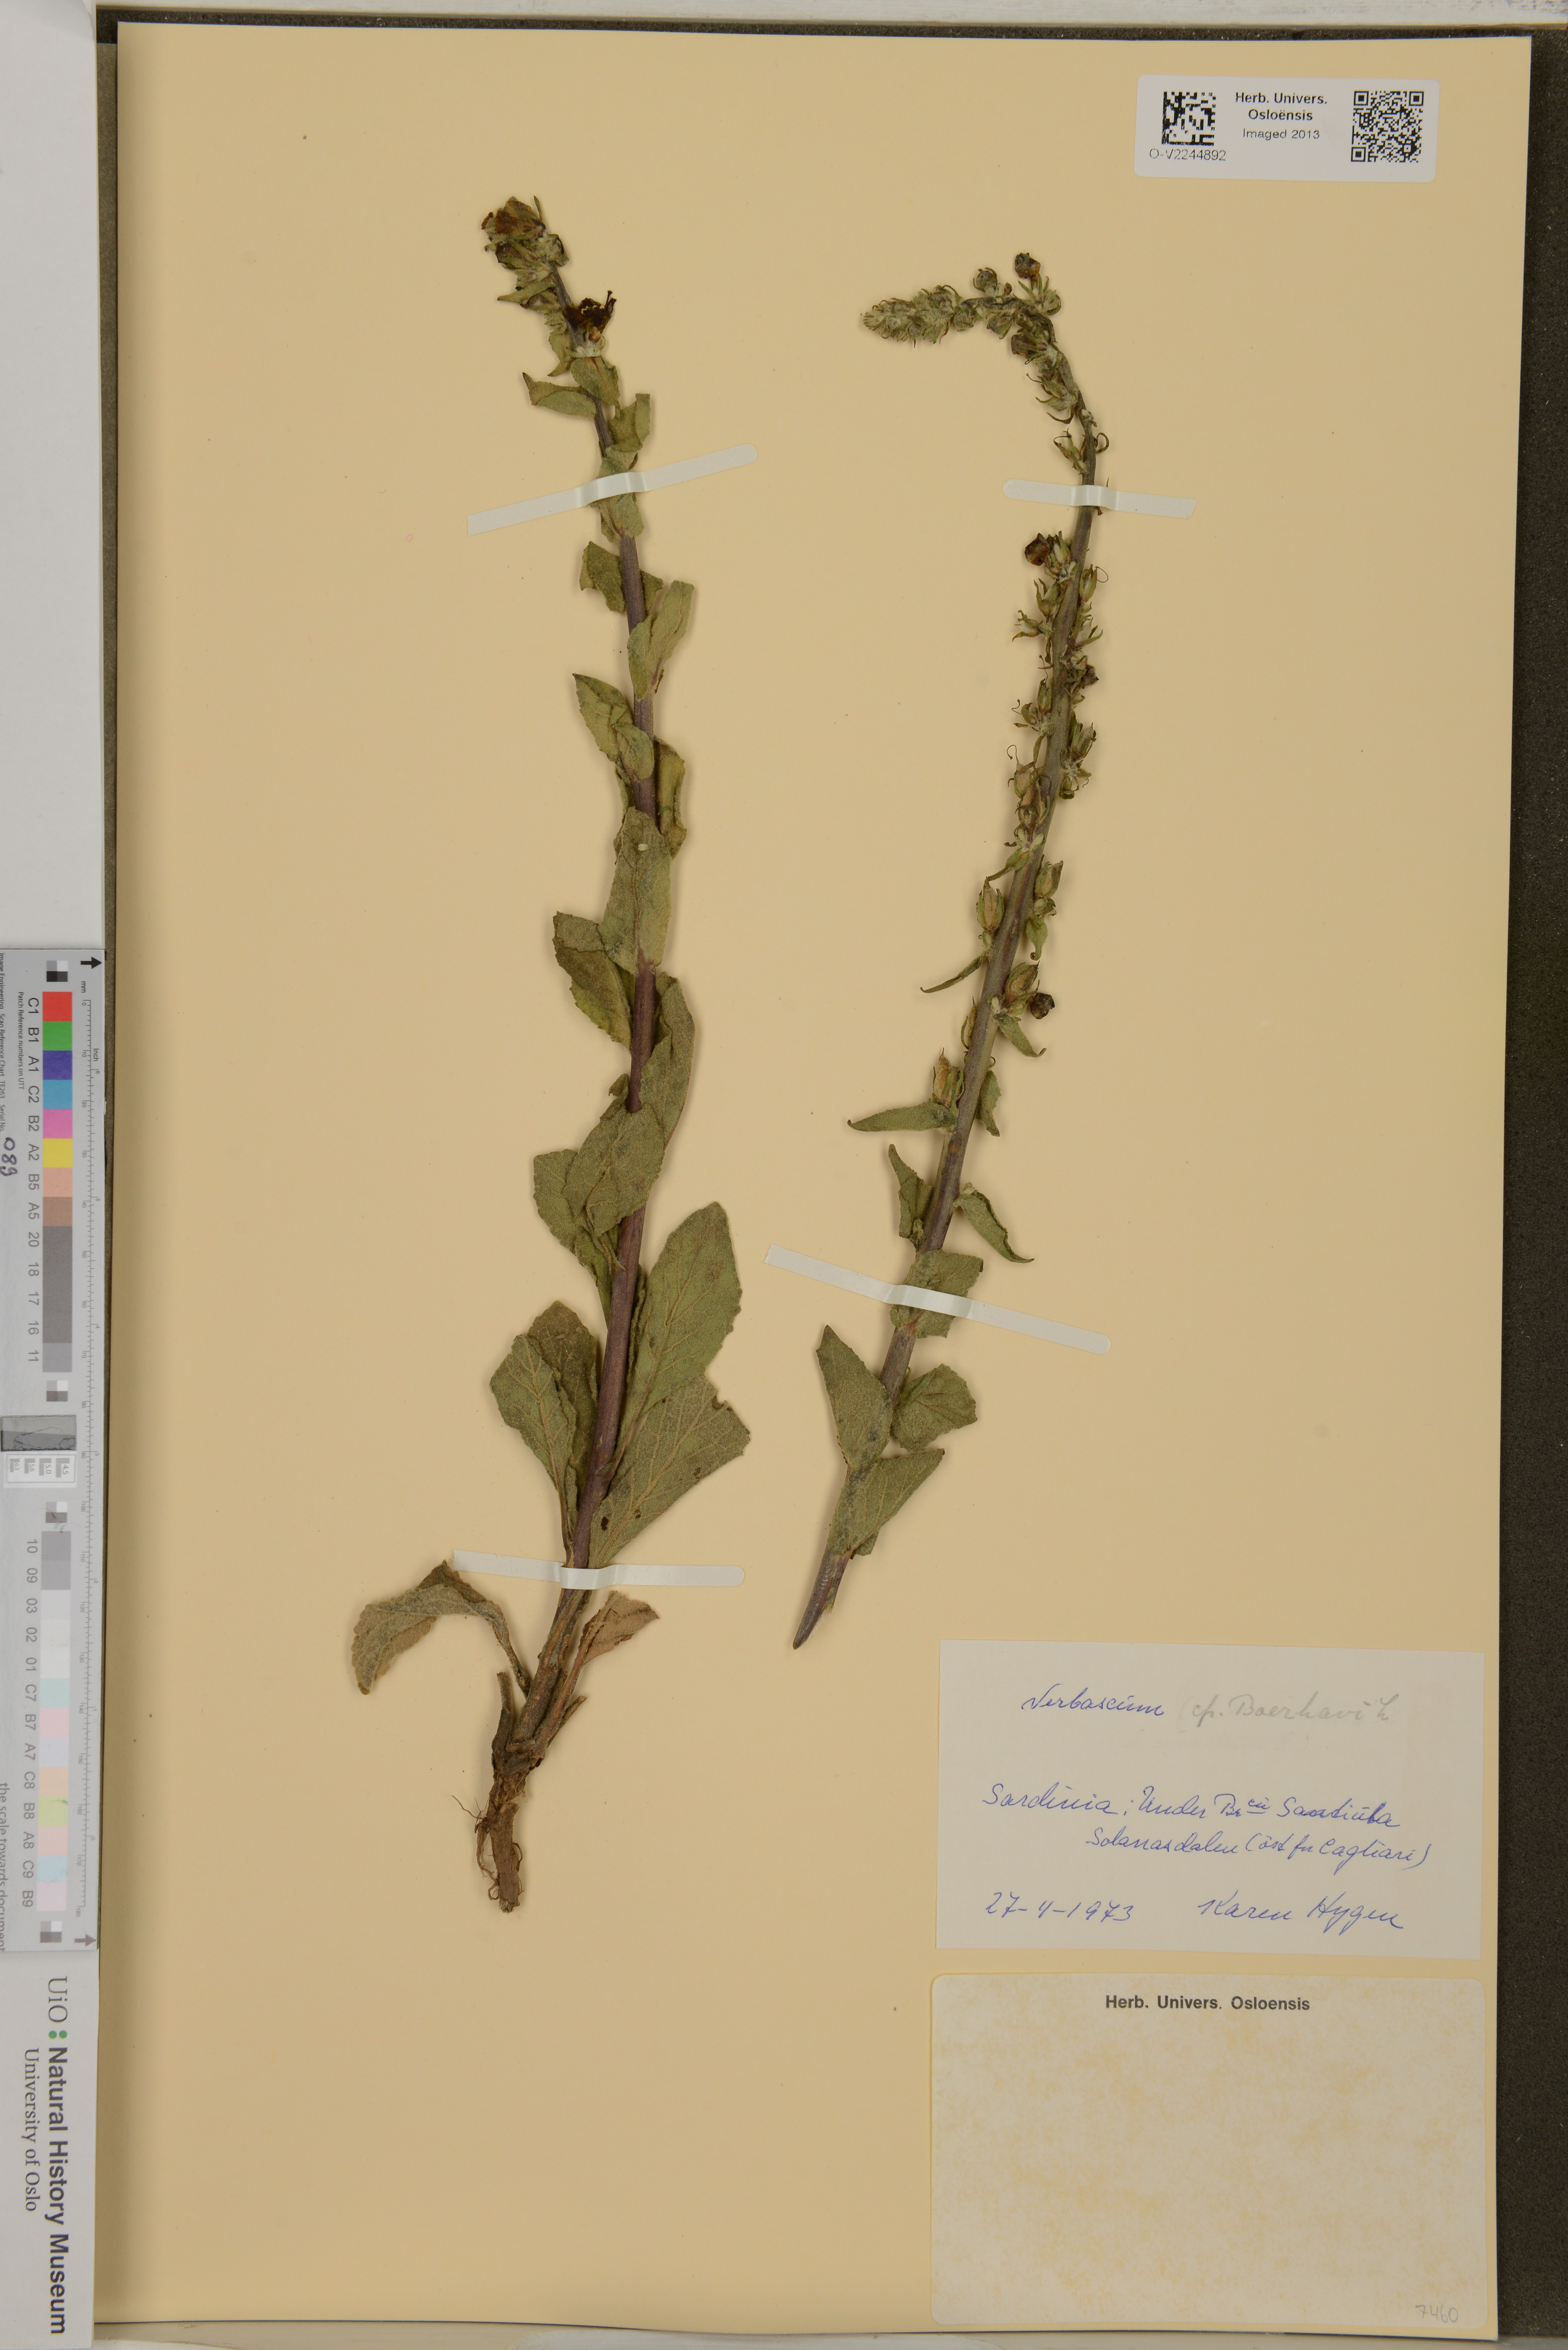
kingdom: Plantae
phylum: Tracheophyta
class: Magnoliopsida
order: Lamiales
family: Scrophulariaceae
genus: Verbascum
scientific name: Verbascum boerhavii
